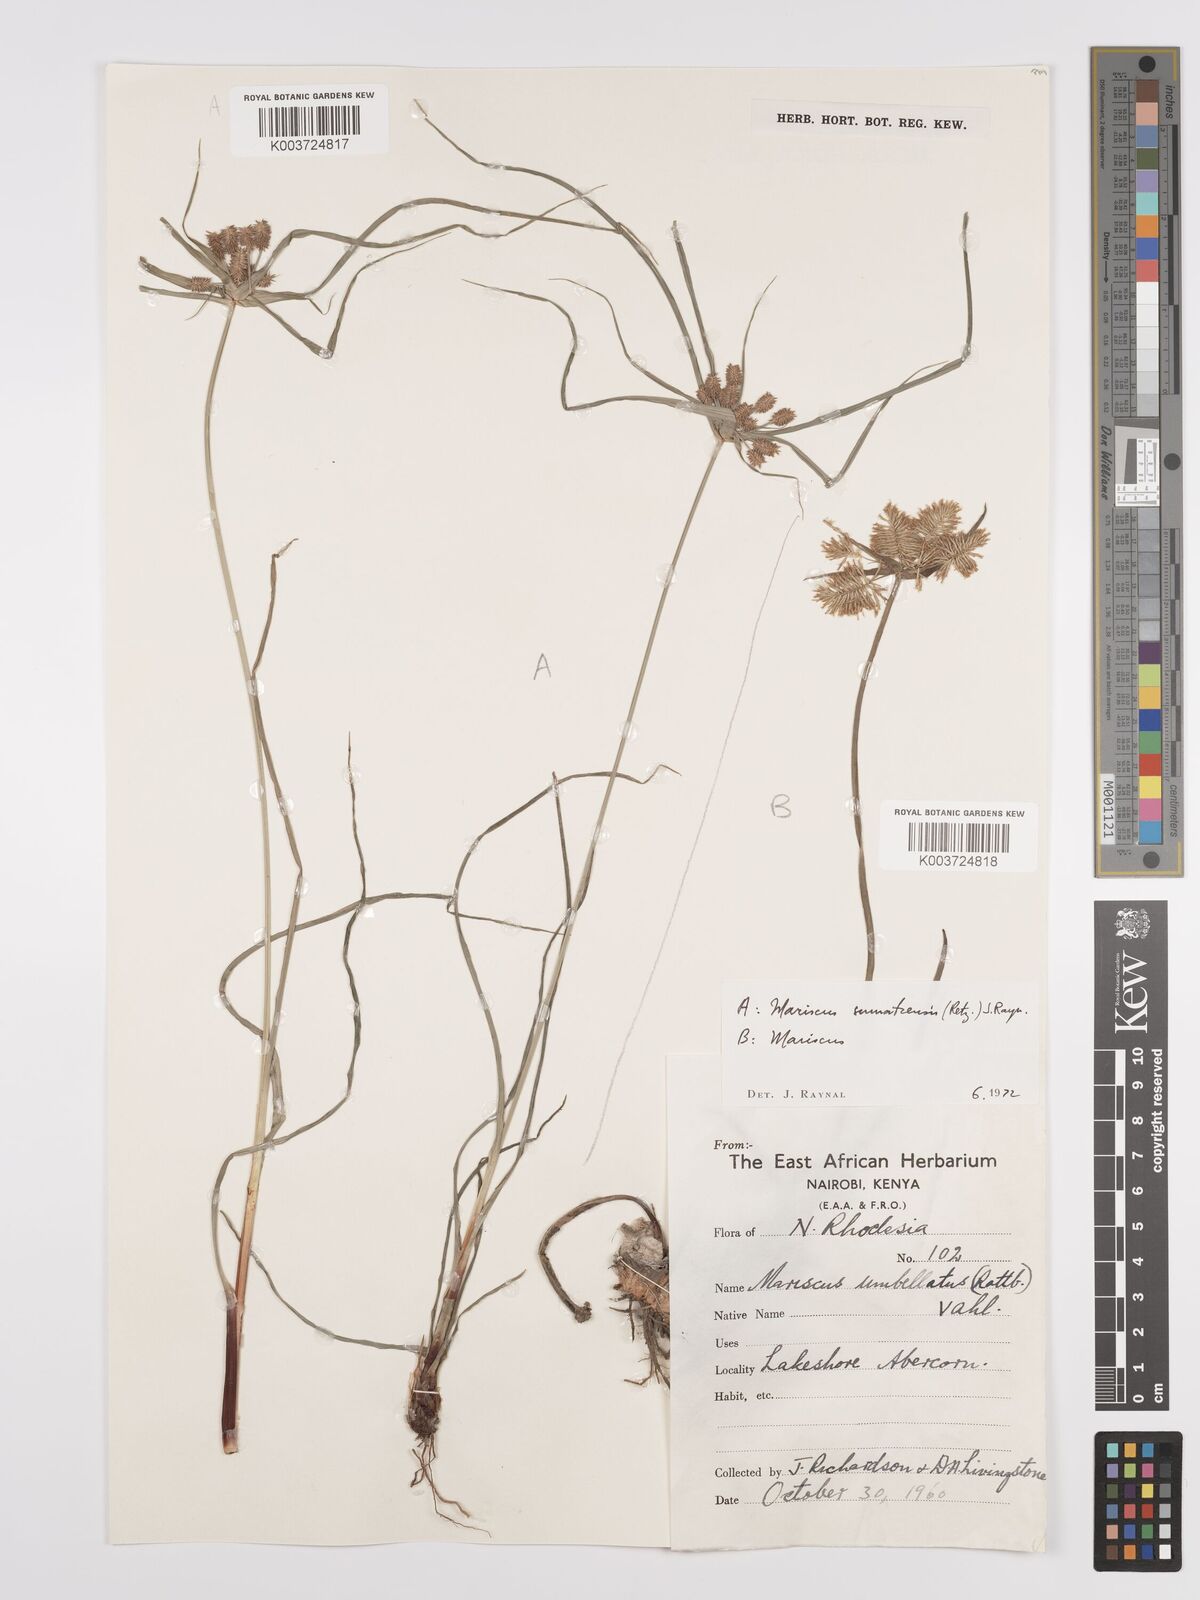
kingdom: Plantae
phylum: Tracheophyta
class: Liliopsida
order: Poales
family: Cyperaceae
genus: Cyperus
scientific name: Cyperus cyperoides
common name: Pacific island flat sedge
